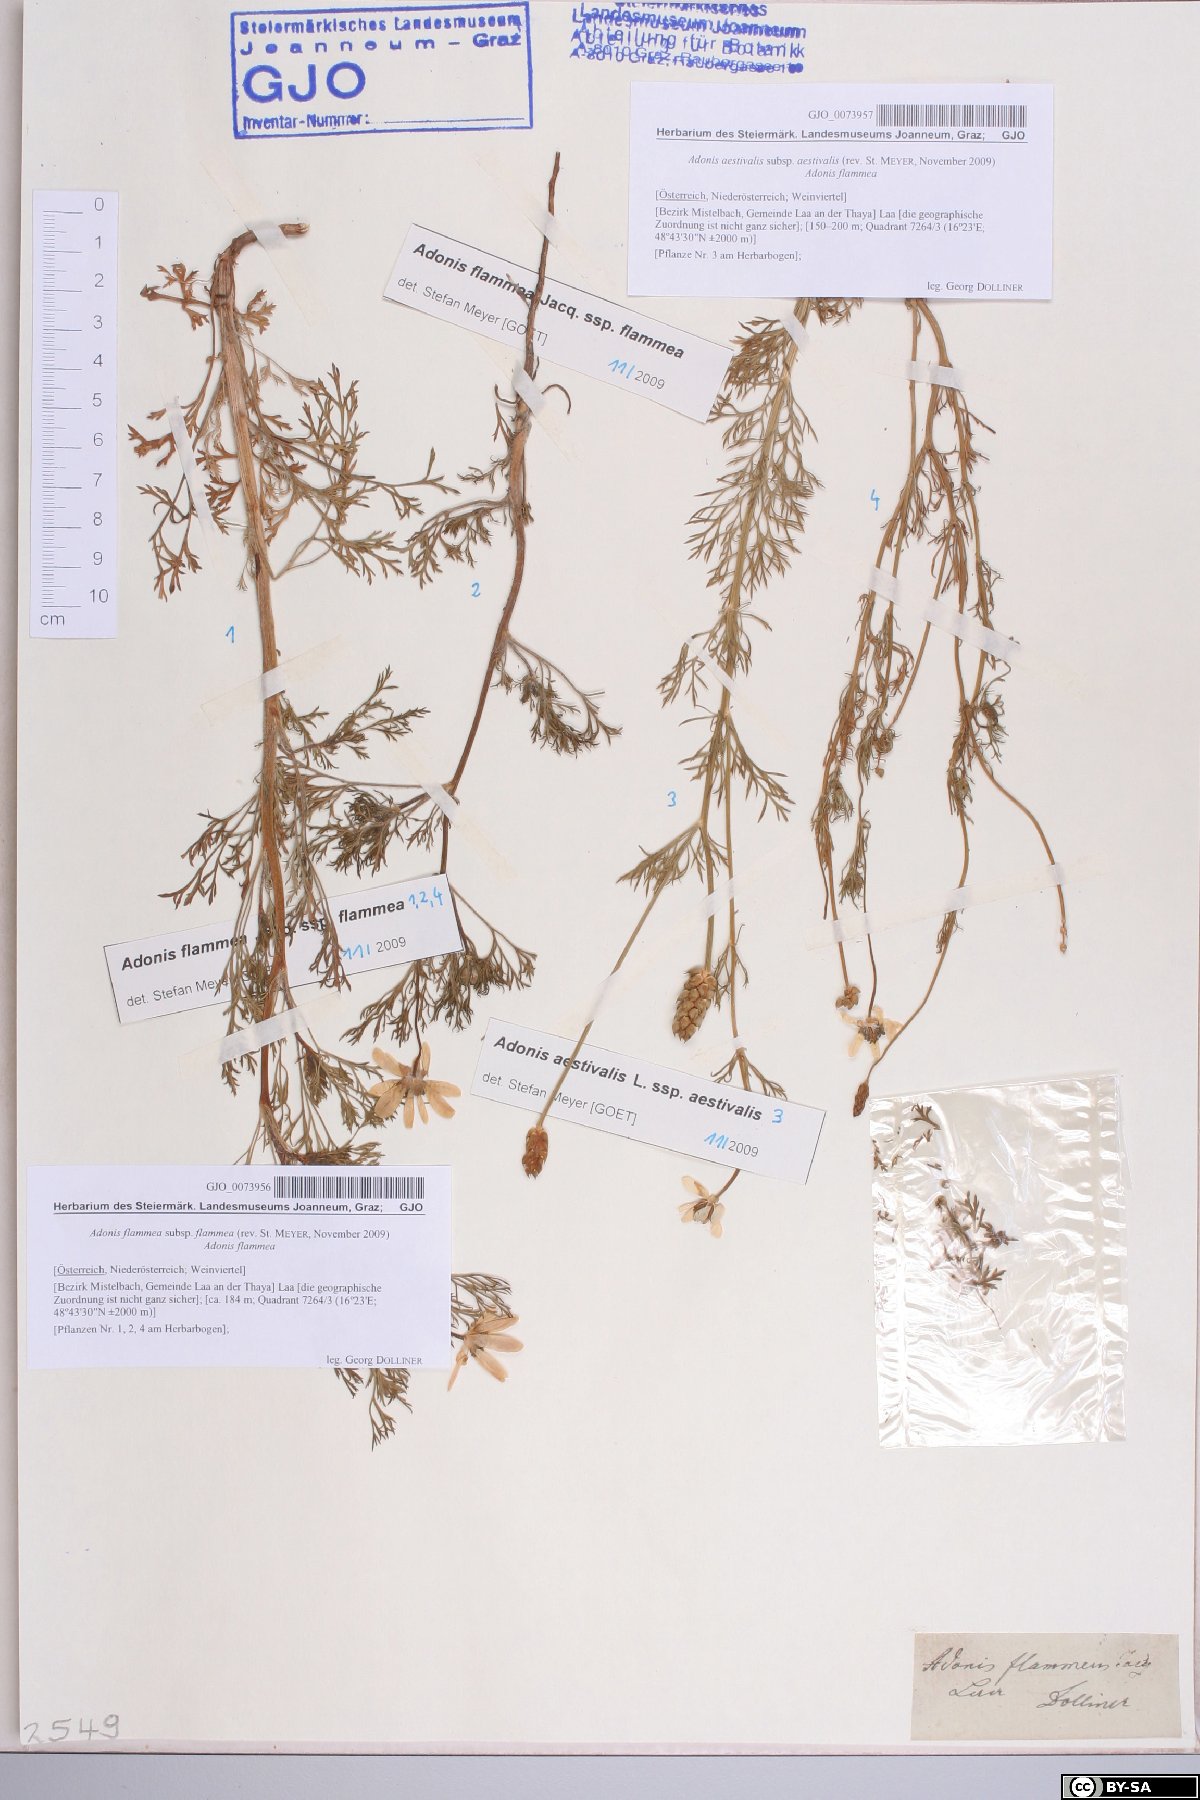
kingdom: Plantae
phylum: Tracheophyta
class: Magnoliopsida
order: Ranunculales
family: Ranunculaceae
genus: Adonis
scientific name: Adonis aestivalis
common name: Summer pheasant's-eye
